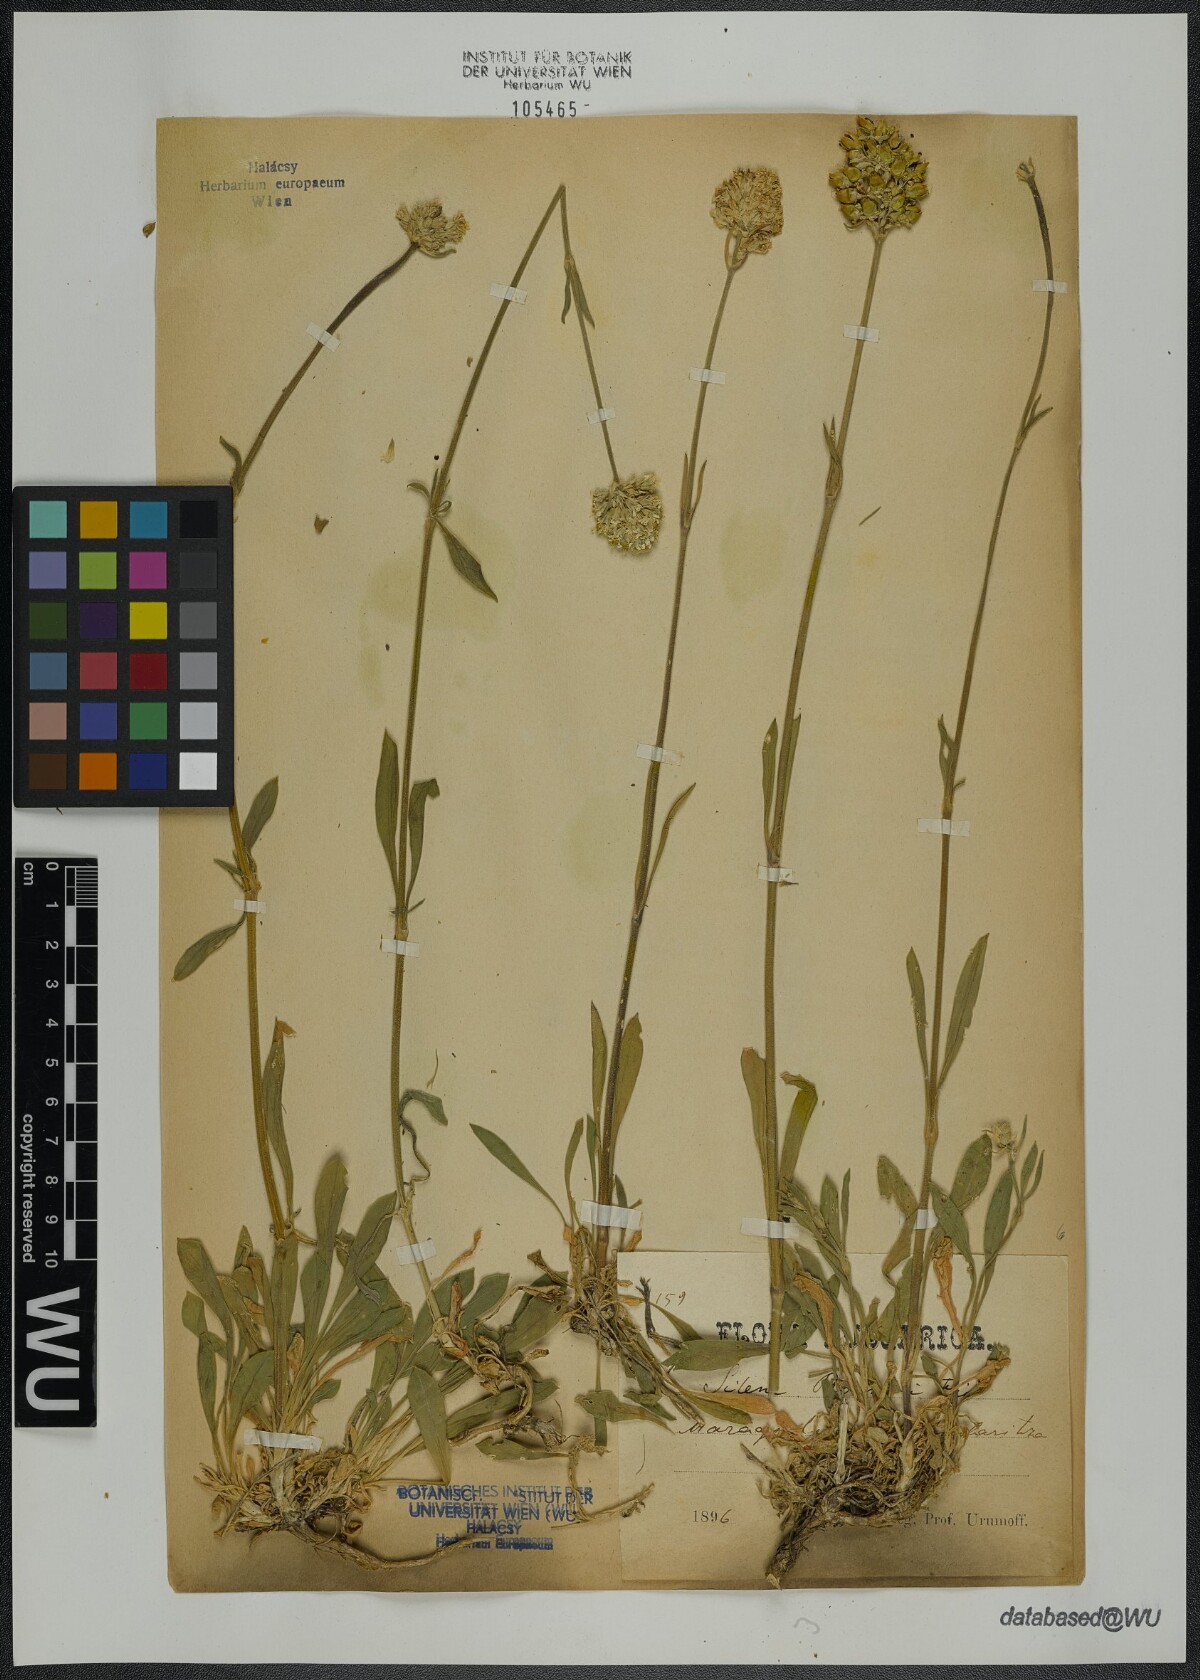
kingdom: Plantae
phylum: Tracheophyta
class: Magnoliopsida
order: Caryophyllales
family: Caryophyllaceae
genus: Silene
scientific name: Silene roemeri
